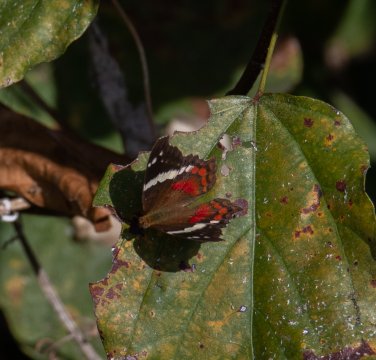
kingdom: Animalia
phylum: Arthropoda
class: Insecta
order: Lepidoptera
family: Nymphalidae
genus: Anartia
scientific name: Anartia fatima
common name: Banded Peacock
